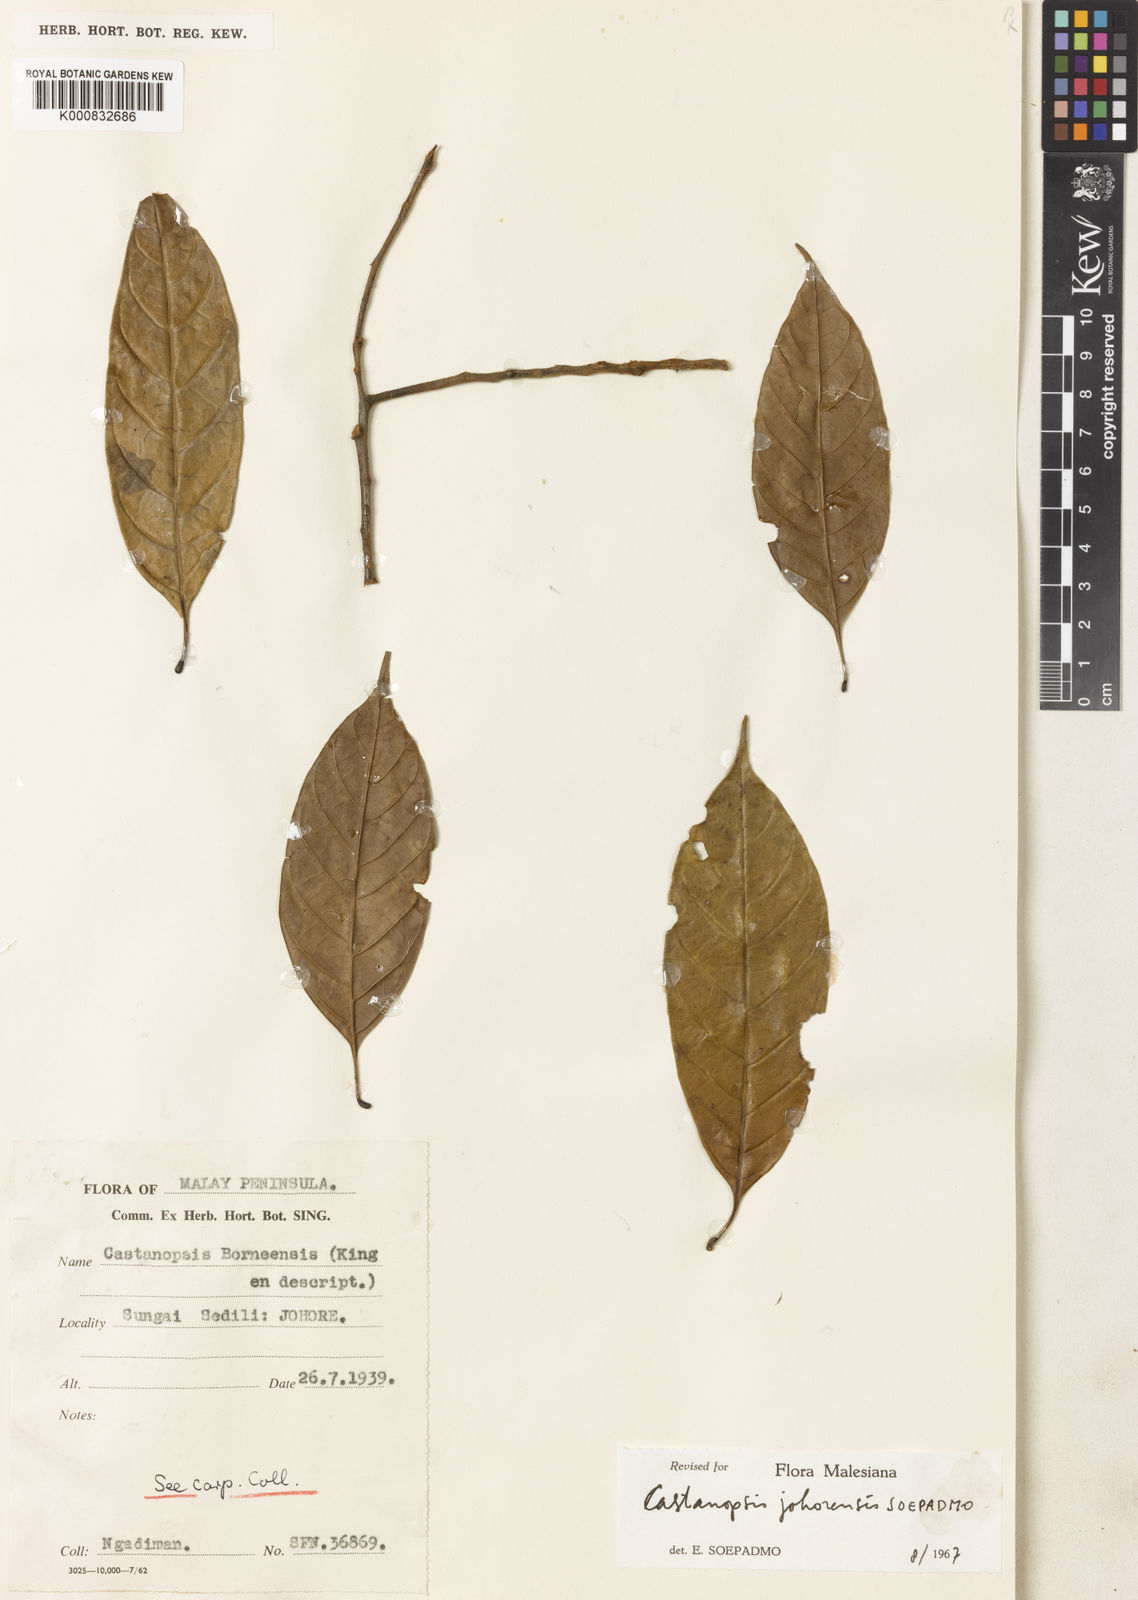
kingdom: Plantae
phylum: Tracheophyta
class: Magnoliopsida
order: Fagales
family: Fagaceae
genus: Castanopsis
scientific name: Castanopsis johorensis
